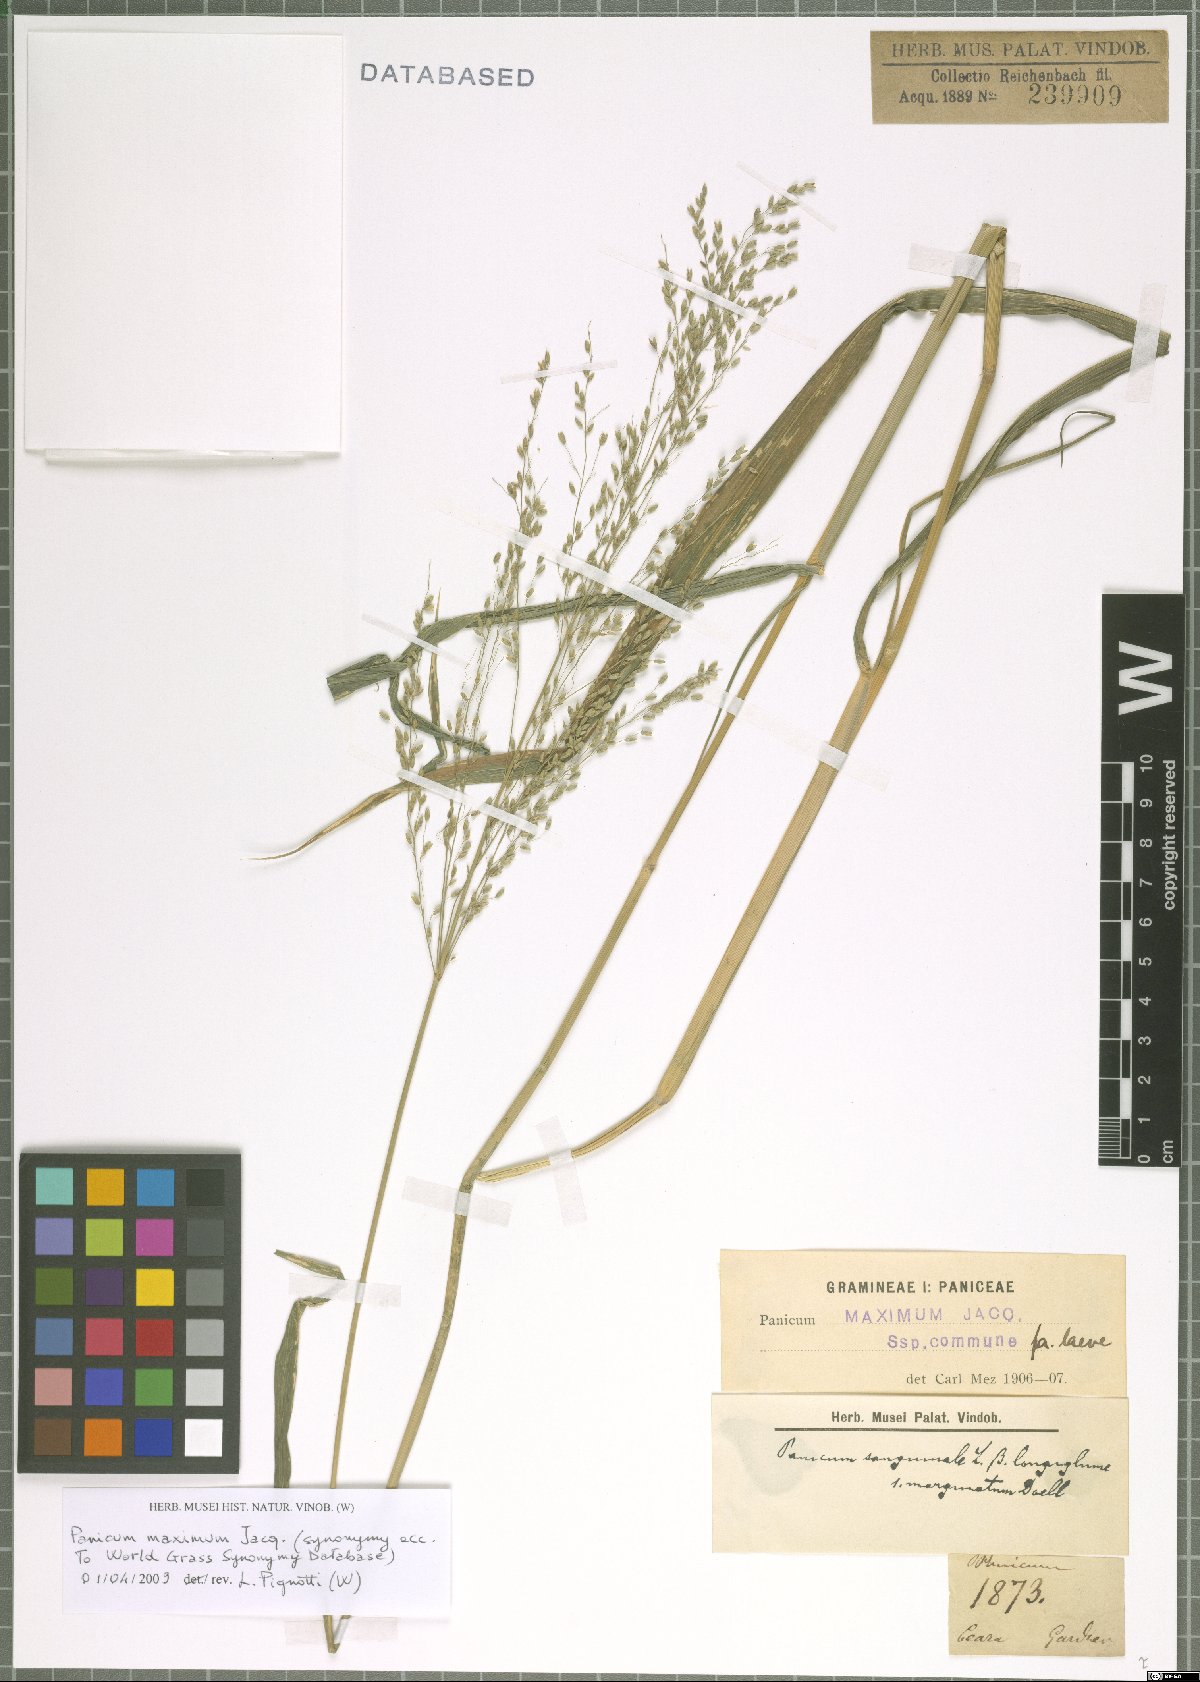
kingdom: Plantae
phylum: Tracheophyta
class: Liliopsida
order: Poales
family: Poaceae
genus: Megathyrsus
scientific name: Megathyrsus maximus
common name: Guineagrass
